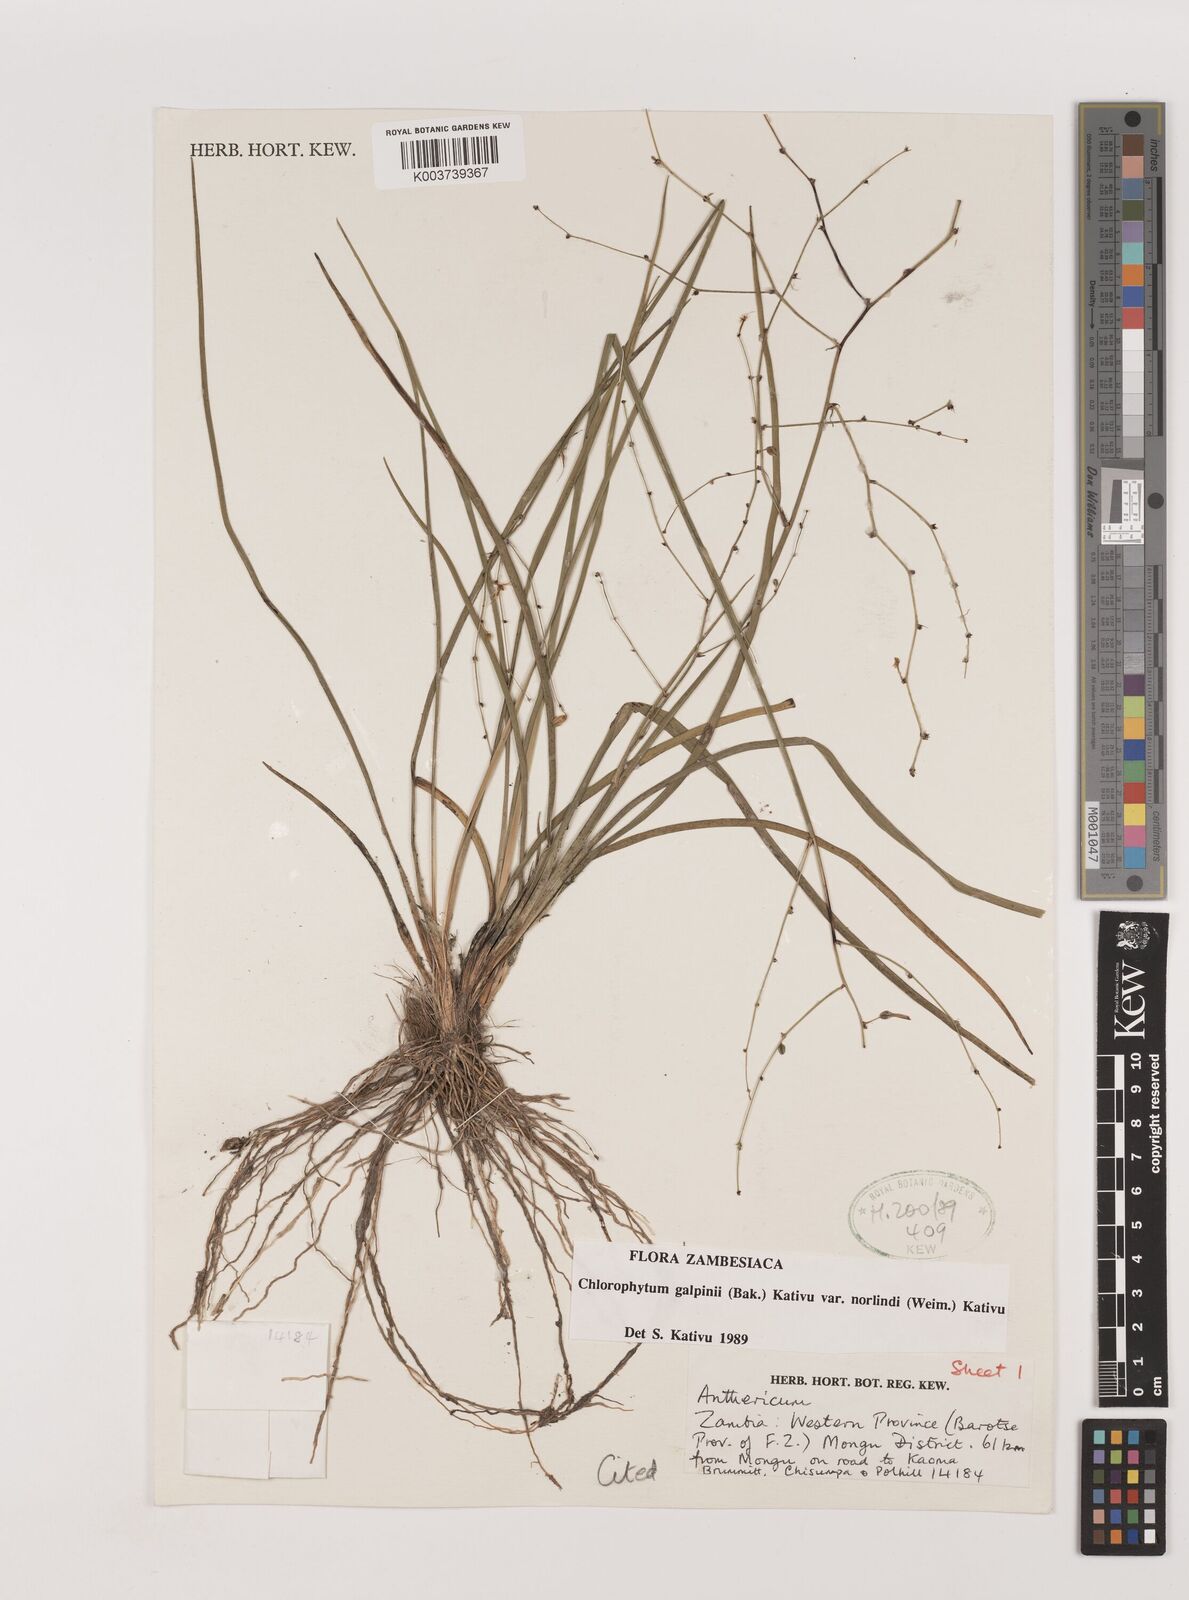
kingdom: Plantae
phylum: Tracheophyta
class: Liliopsida
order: Asparagales
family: Asparagaceae
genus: Chlorophytum
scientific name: Chlorophytum galpinii
